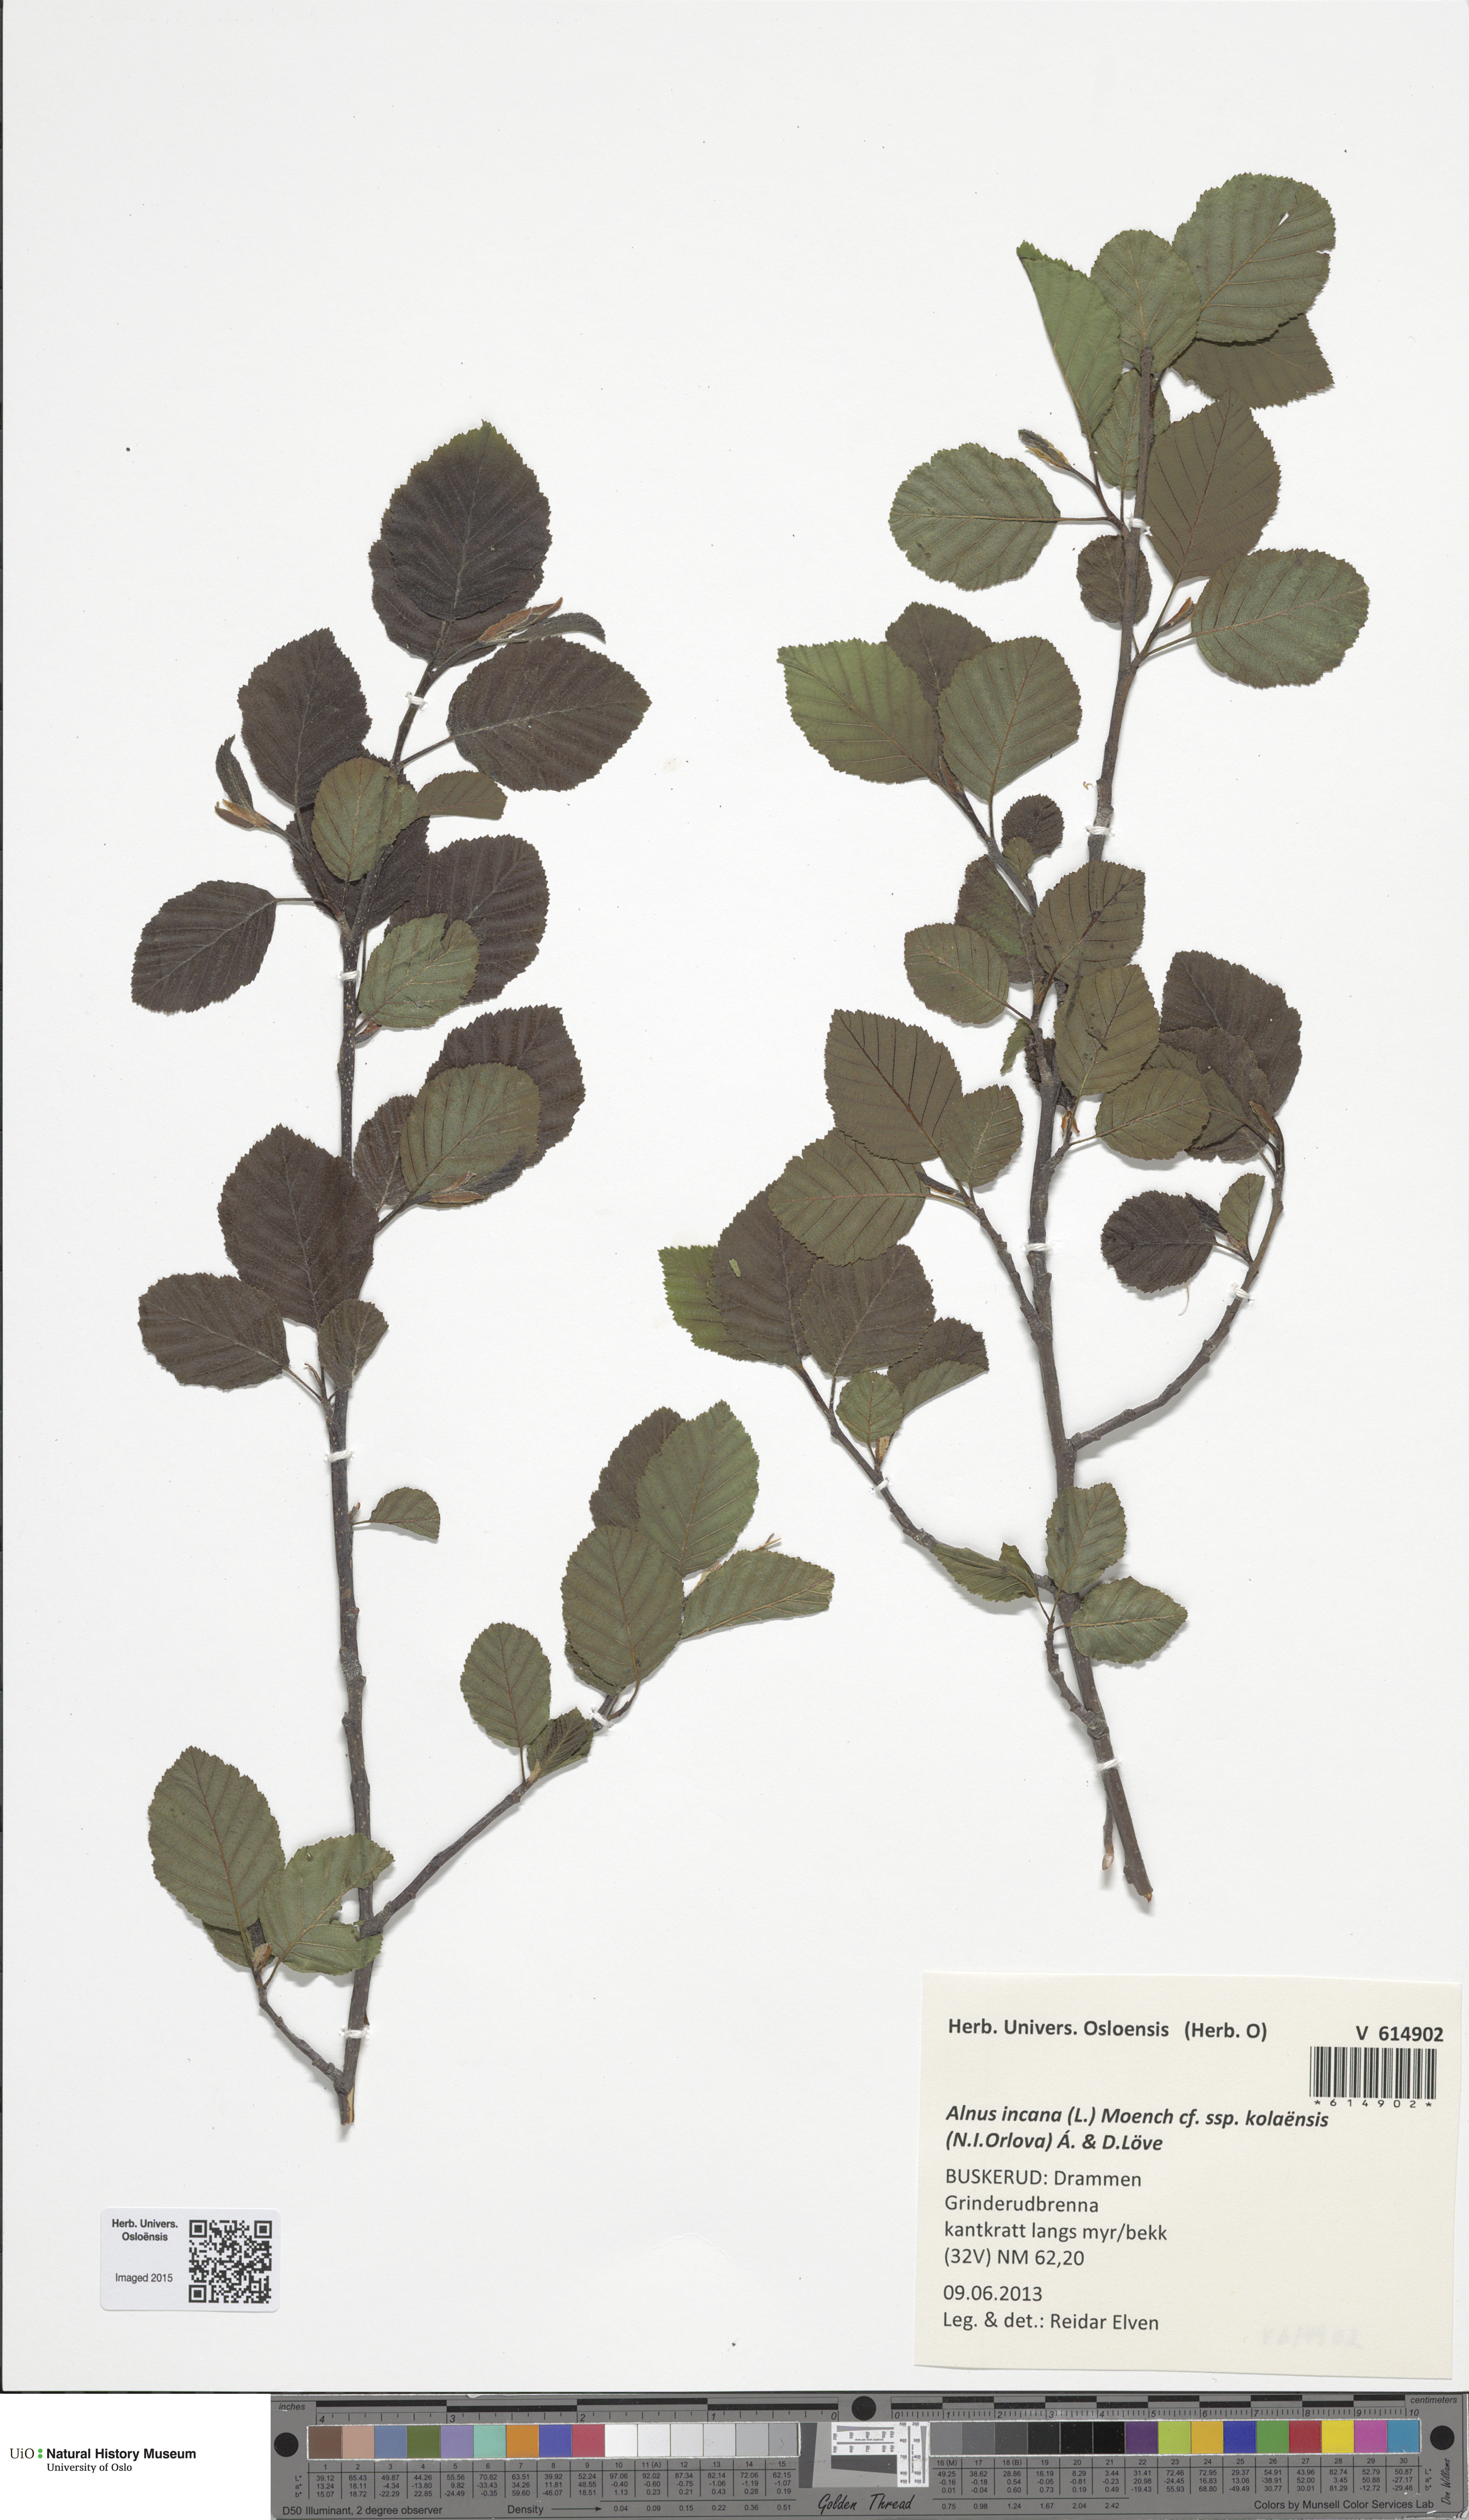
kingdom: Plantae
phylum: Tracheophyta
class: Magnoliopsida
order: Fagales
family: Betulaceae
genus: Alnus
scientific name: Alnus incana
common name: Grey alder
